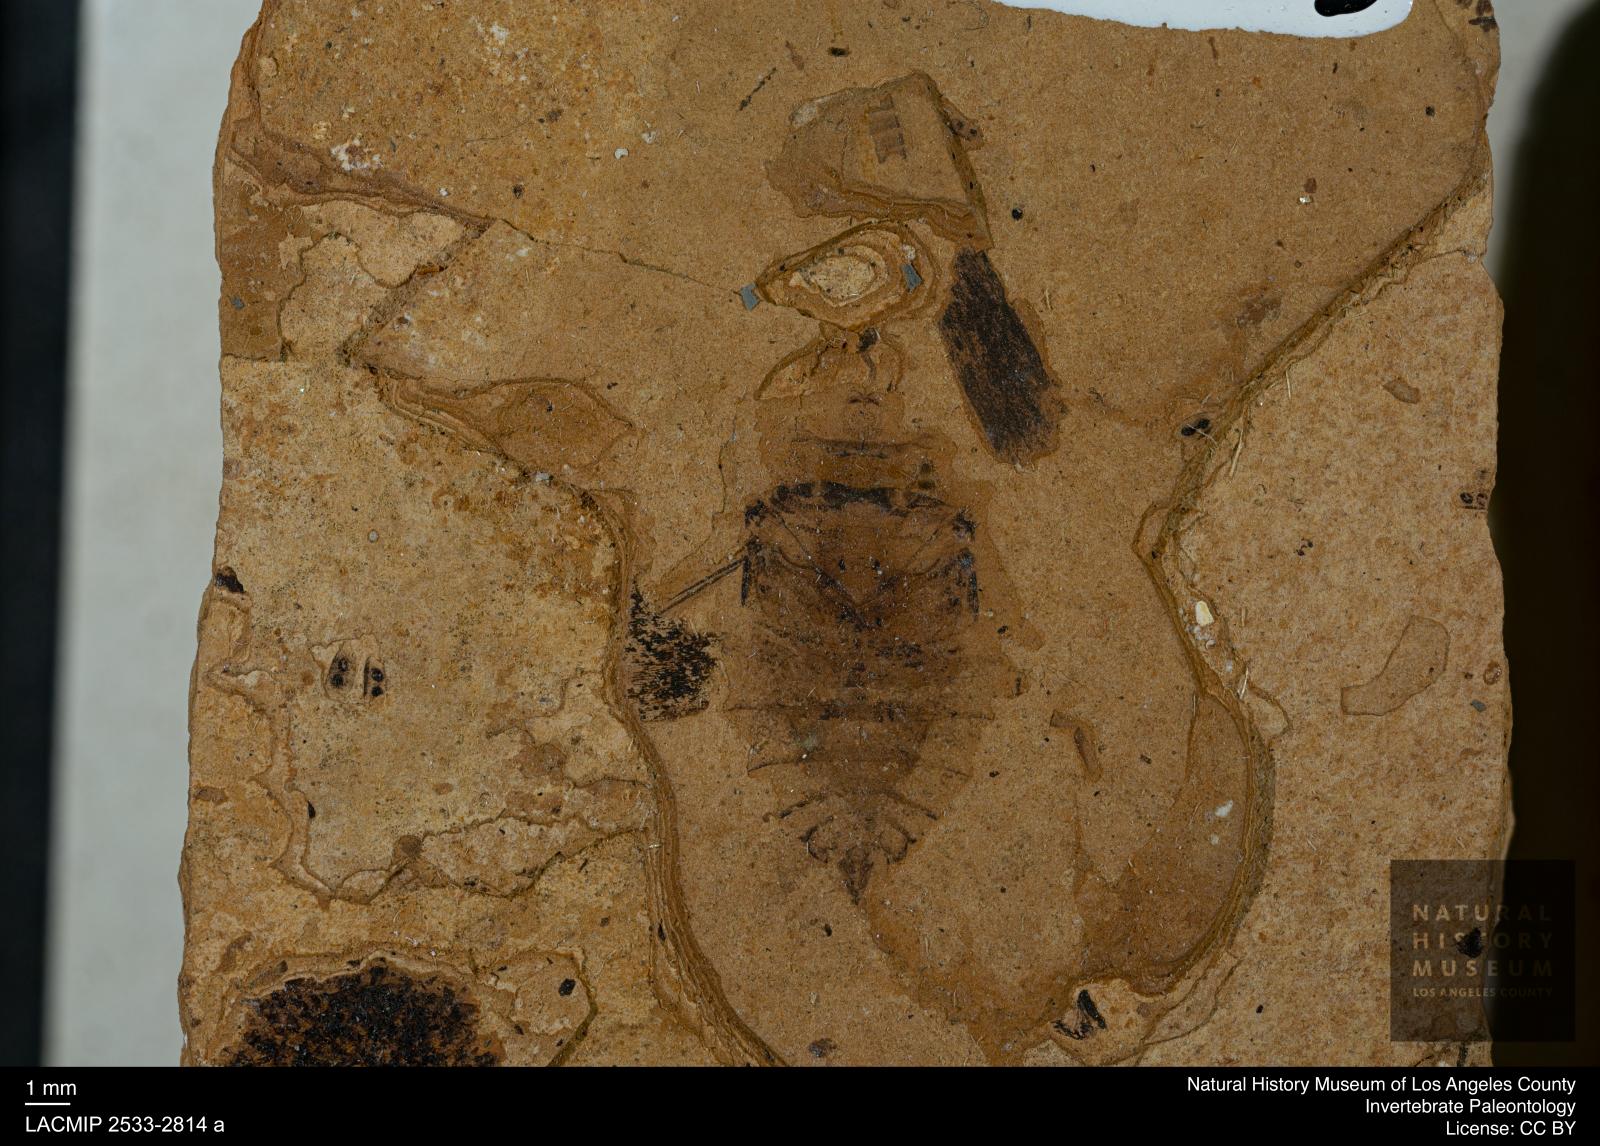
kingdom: Animalia
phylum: Arthropoda
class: Insecta
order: Hemiptera
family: Naucoridae
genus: Naucoris
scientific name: Naucoris rottensis
